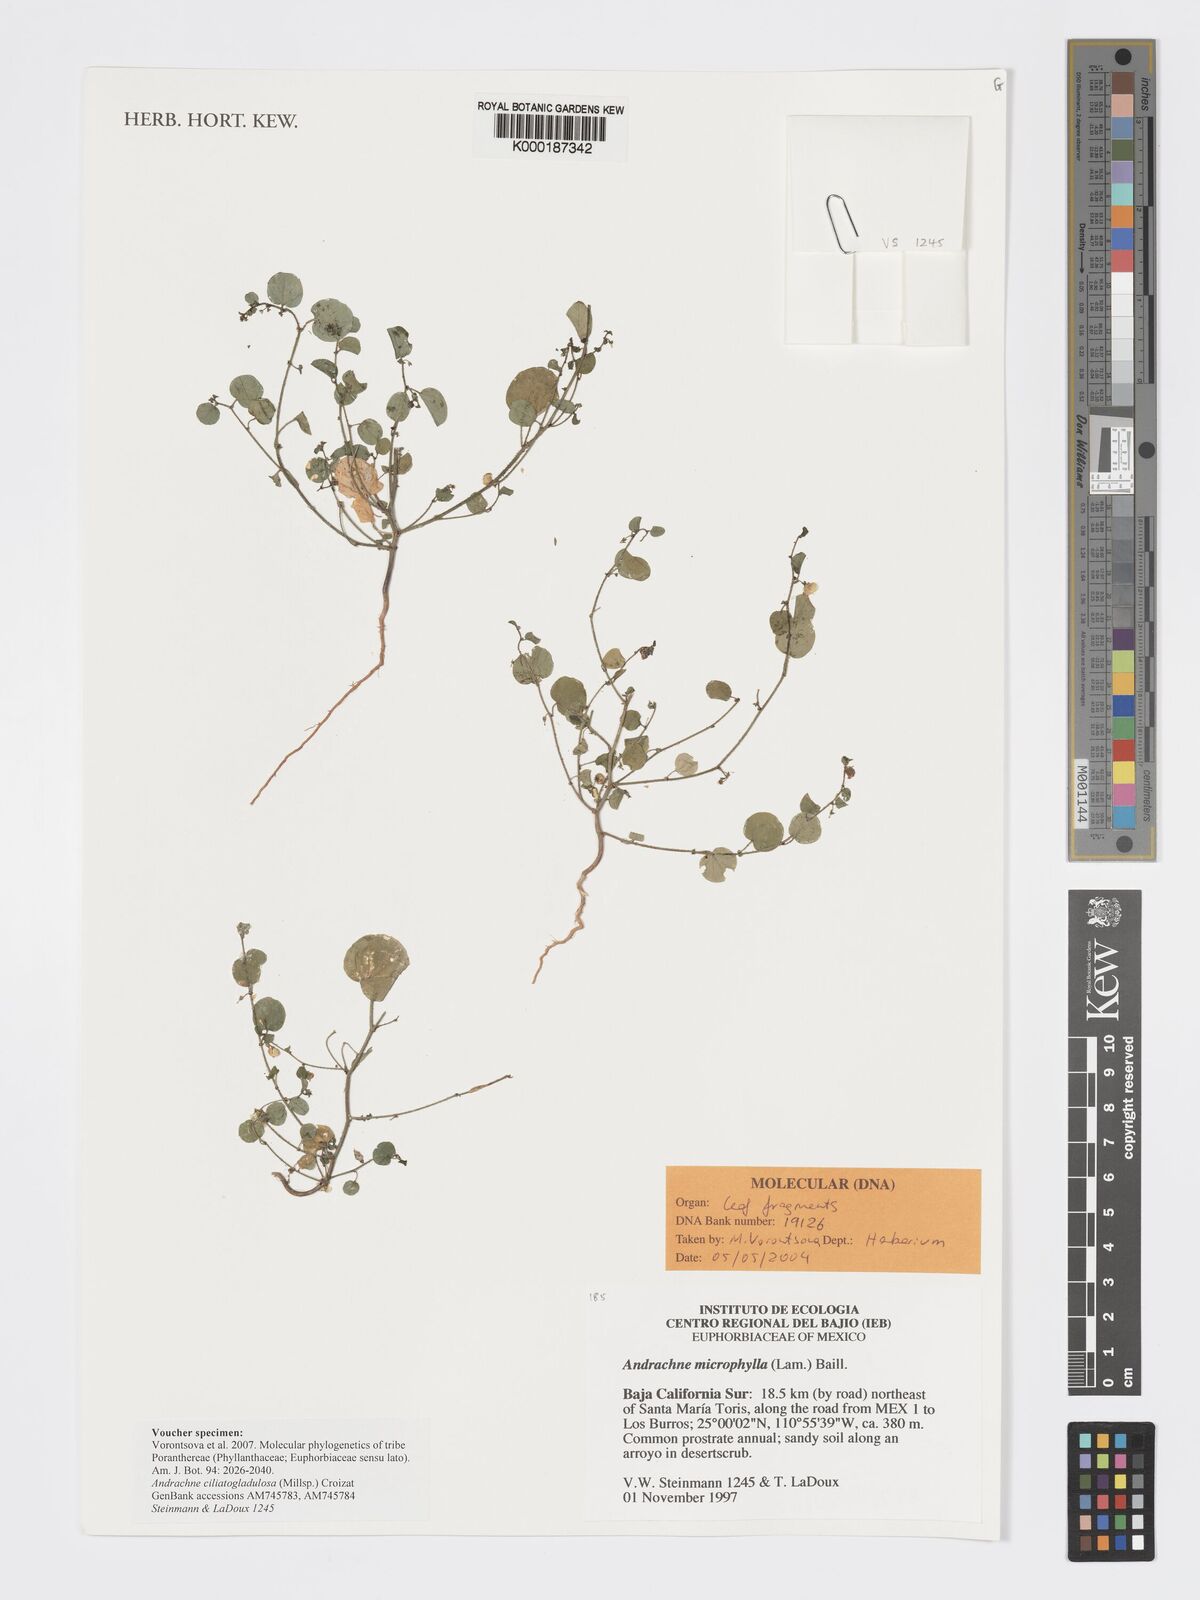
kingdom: Plantae
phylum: Tracheophyta
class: Magnoliopsida
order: Malpighiales
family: Phyllanthaceae
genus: Andrachne
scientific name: Andrachne microphylla
